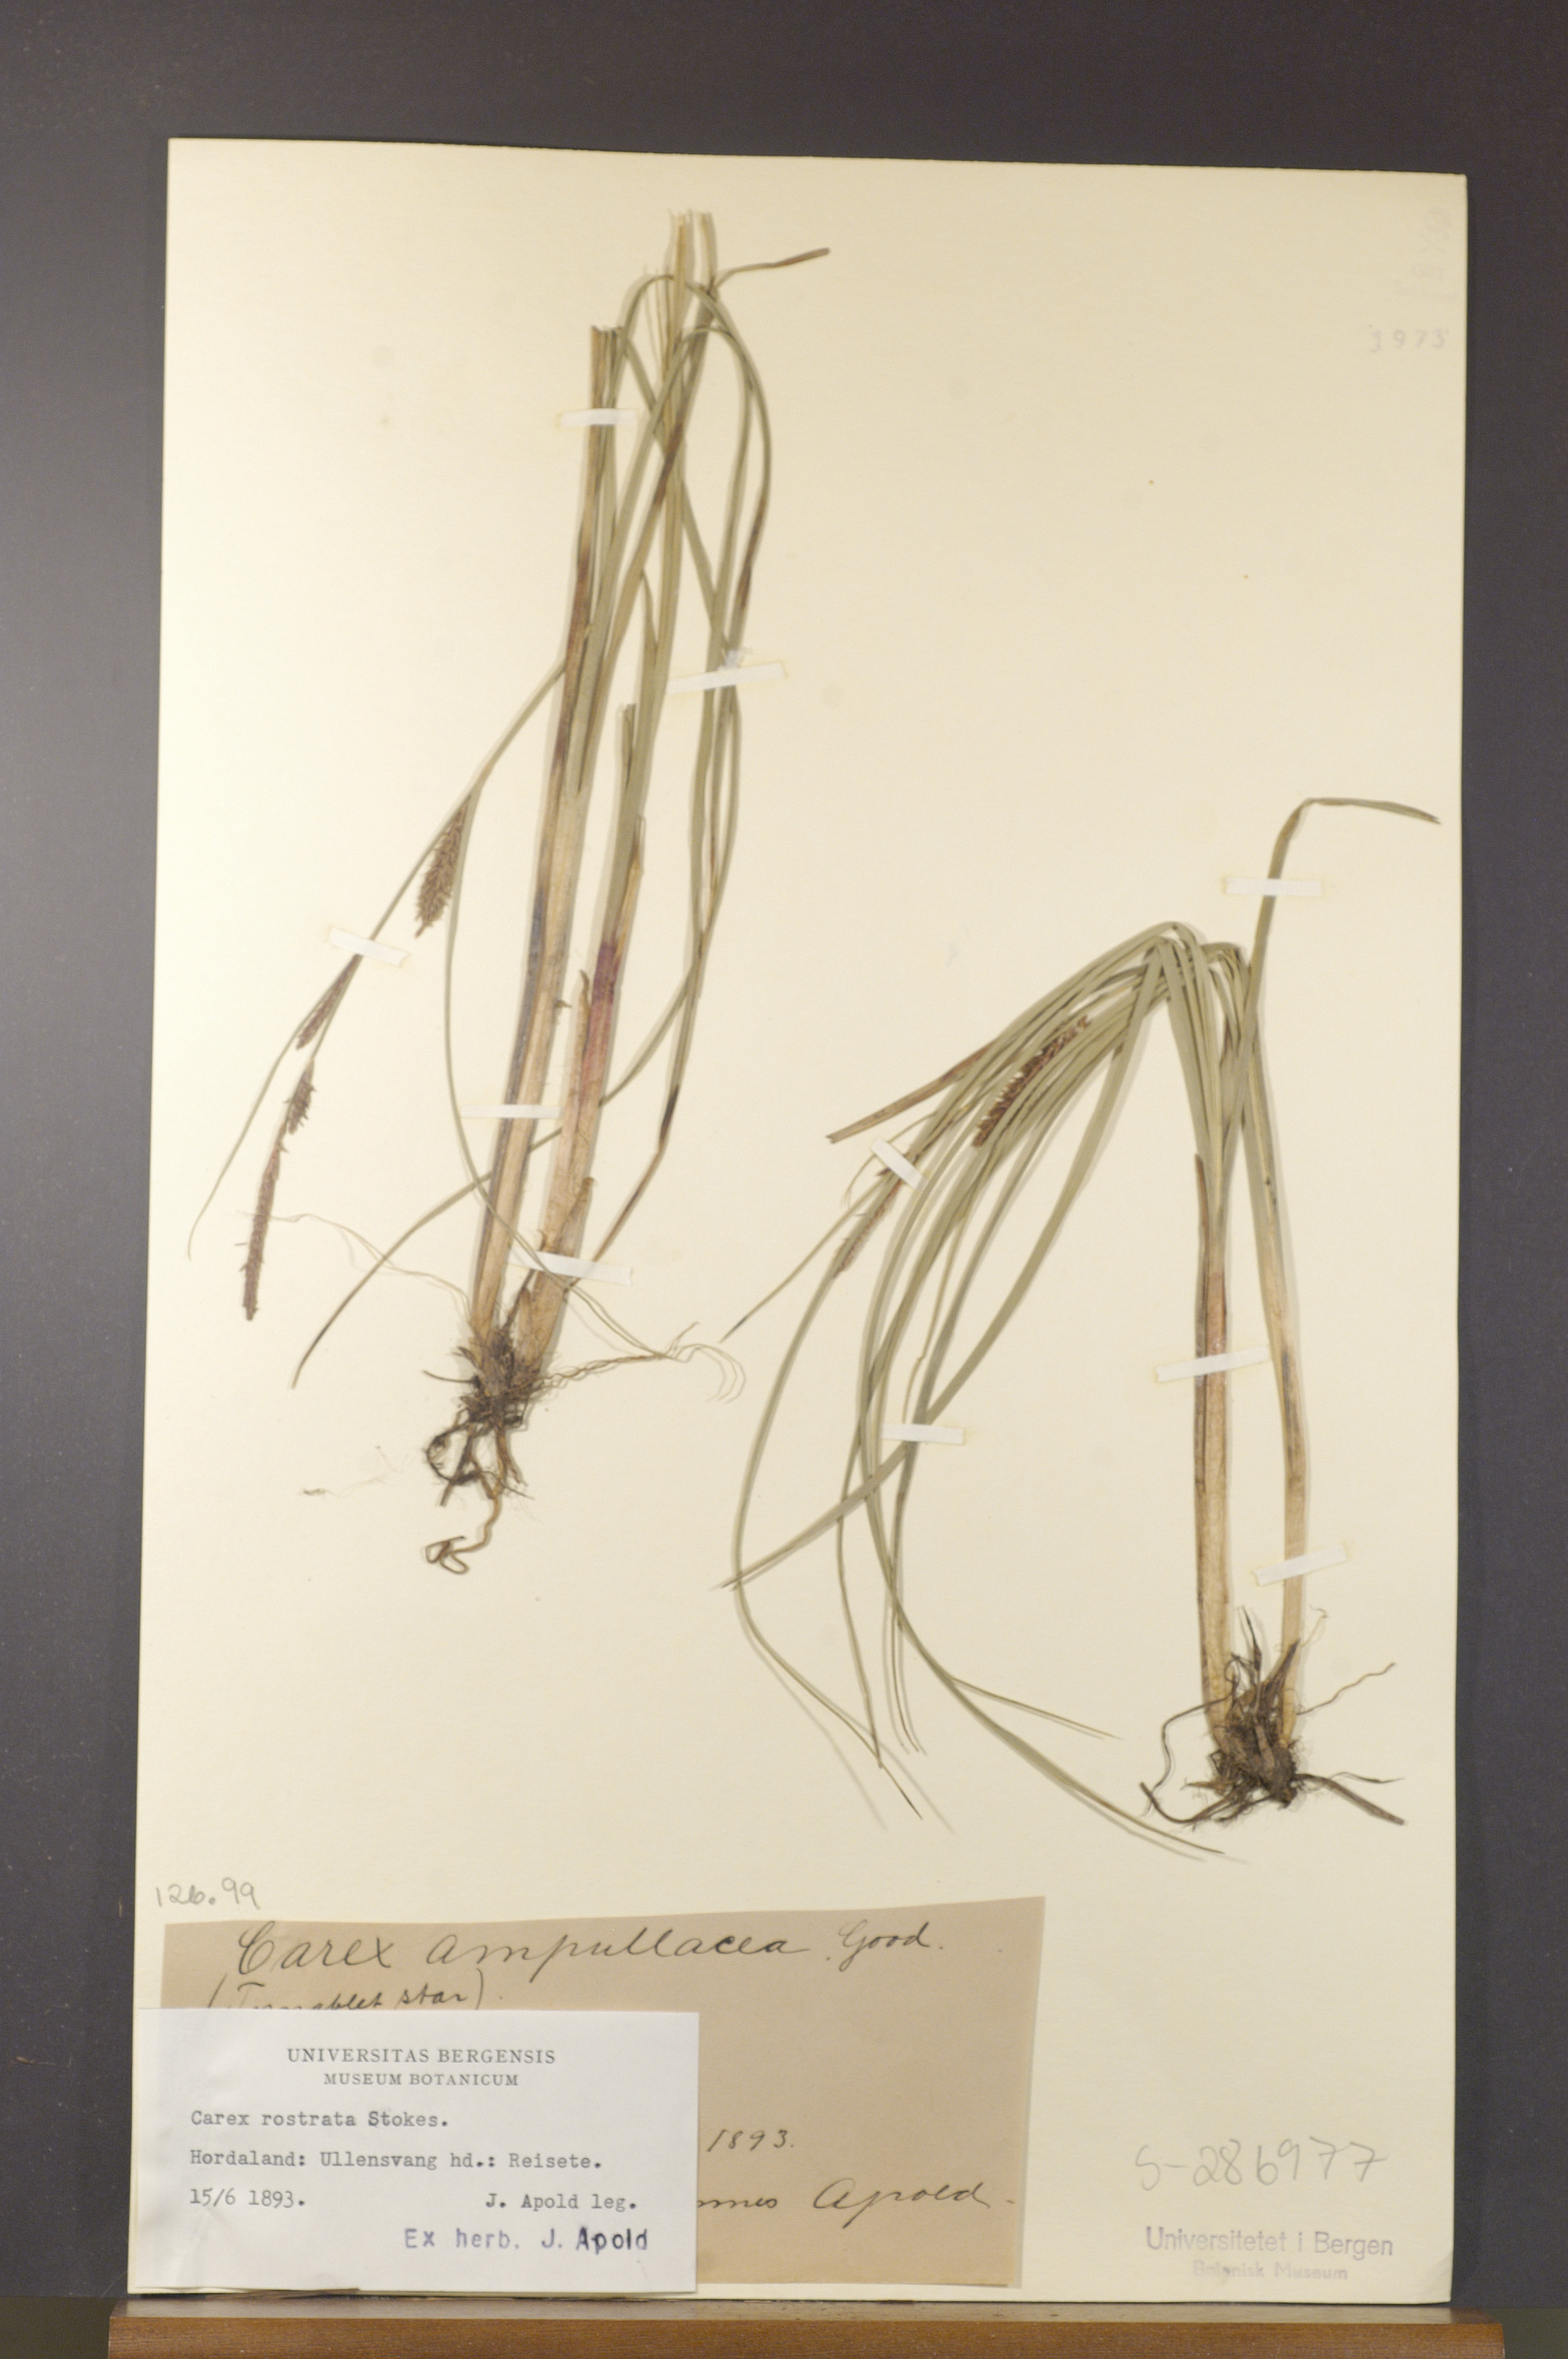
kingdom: Plantae
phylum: Tracheophyta
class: Liliopsida
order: Poales
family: Cyperaceae
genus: Carex
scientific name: Carex rostrata
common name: Bottle sedge
